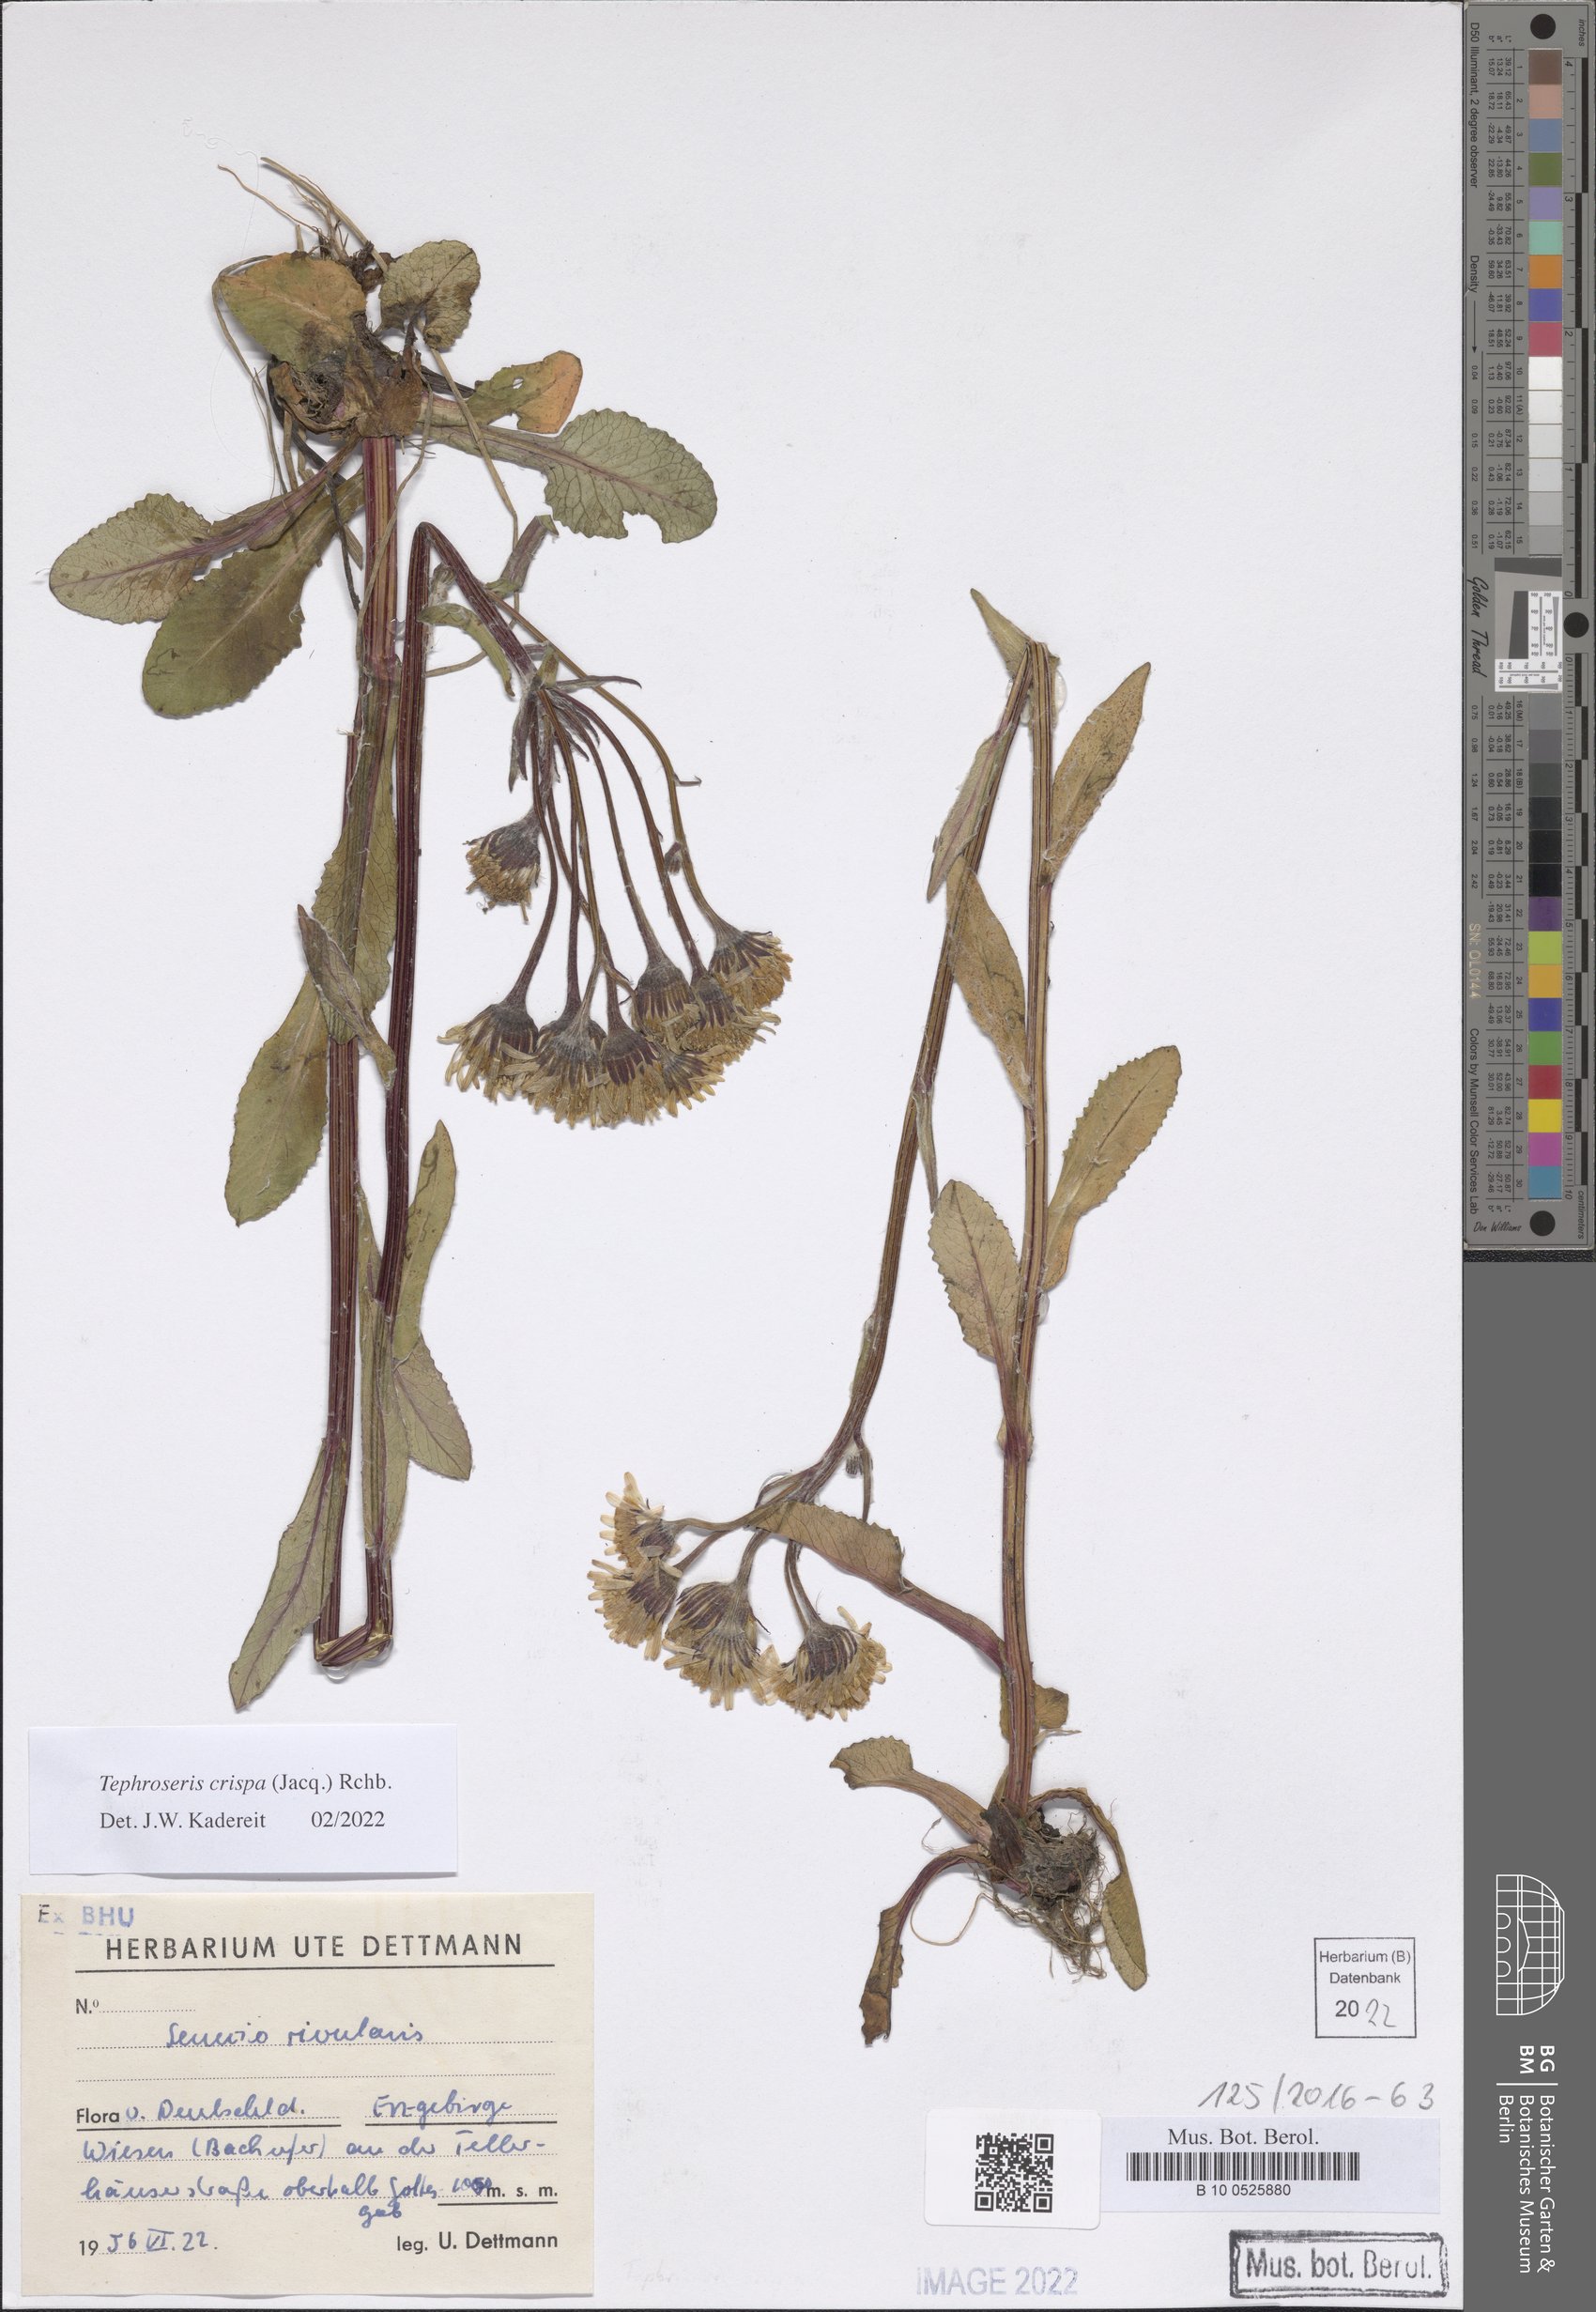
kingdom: Plantae
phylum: Tracheophyta
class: Magnoliopsida
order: Asterales
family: Asteraceae
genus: Tephroseris
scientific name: Tephroseris crispa
